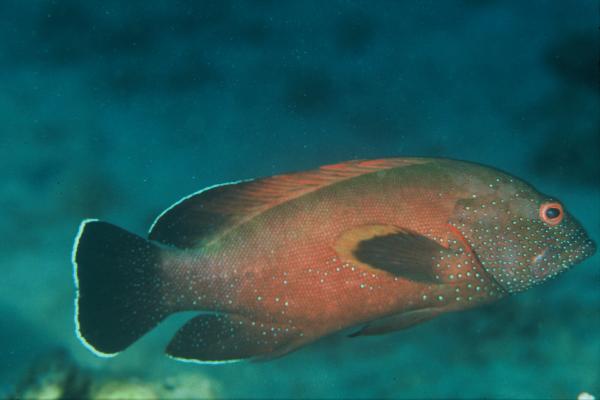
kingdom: Animalia
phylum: Chordata
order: Perciformes
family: Serranidae
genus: Cephalopholis
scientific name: Cephalopholis hemistiktos
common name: Halfspotted hind
